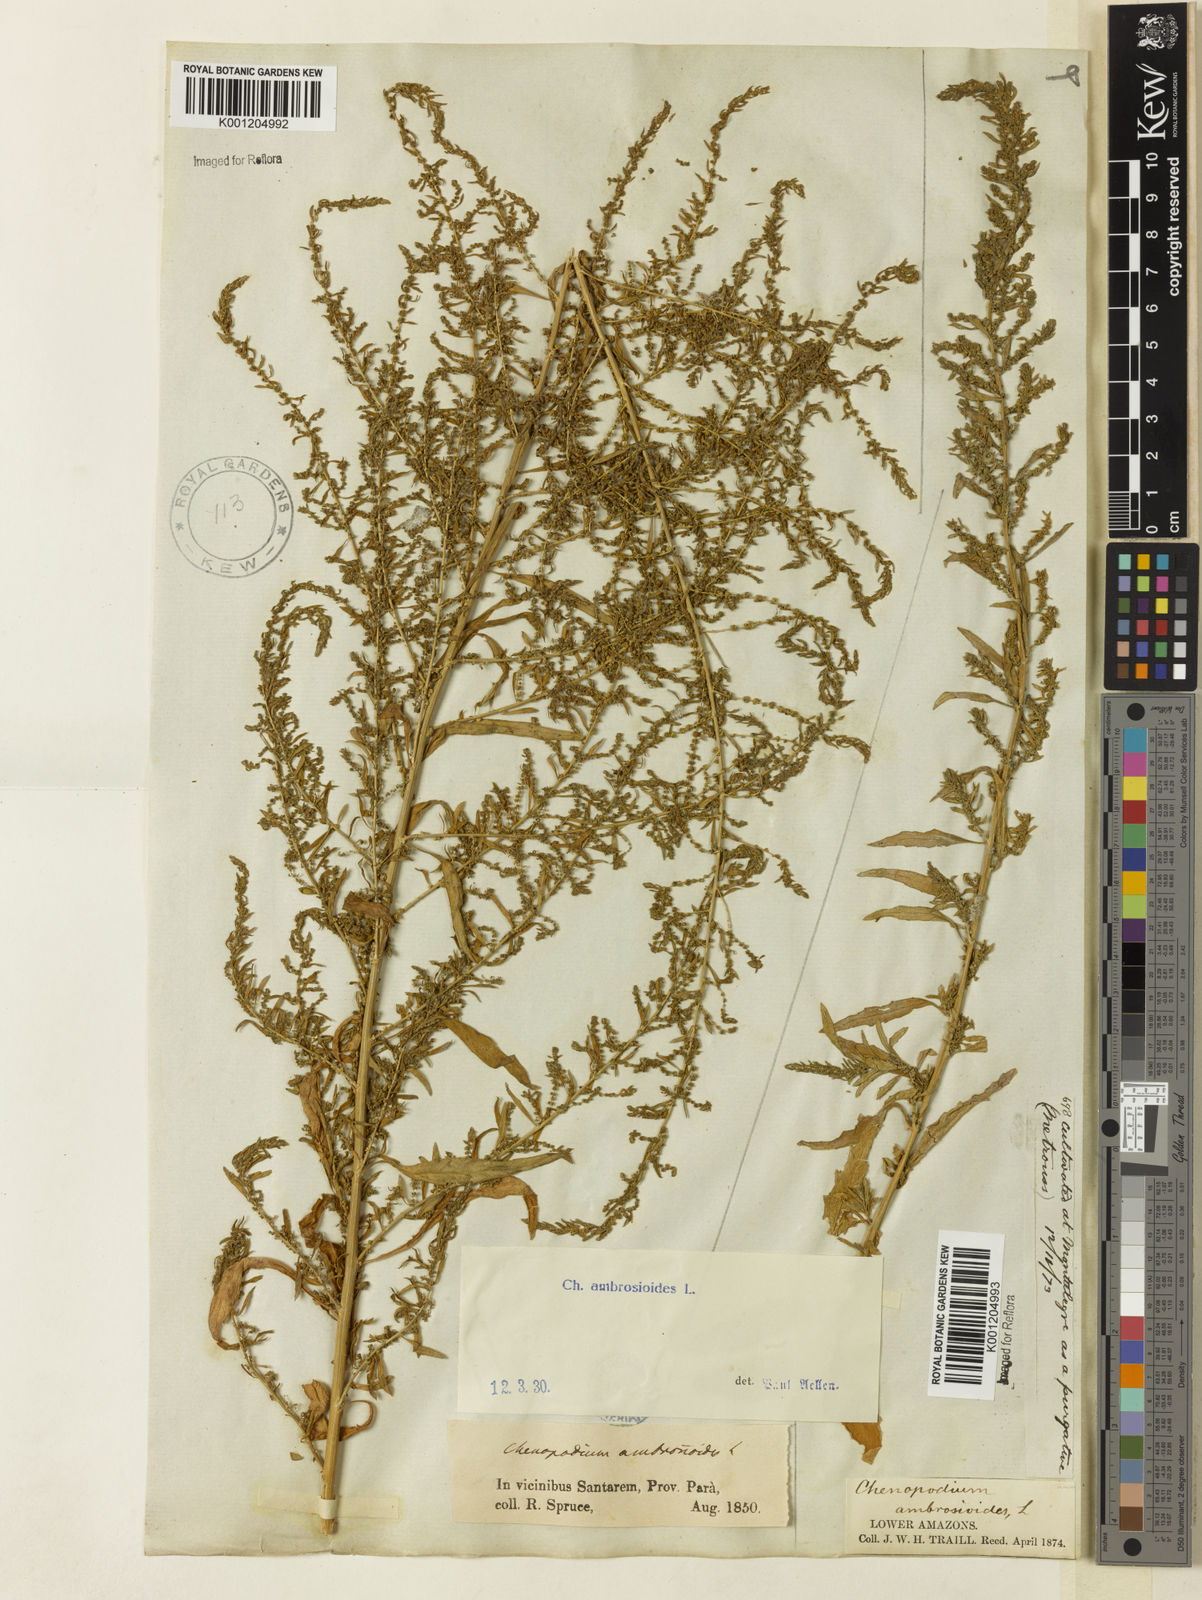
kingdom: Plantae
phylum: Tracheophyta
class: Magnoliopsida
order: Caryophyllales
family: Amaranthaceae
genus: Dysphania
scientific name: Dysphania ambrosioides
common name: Wormseed
